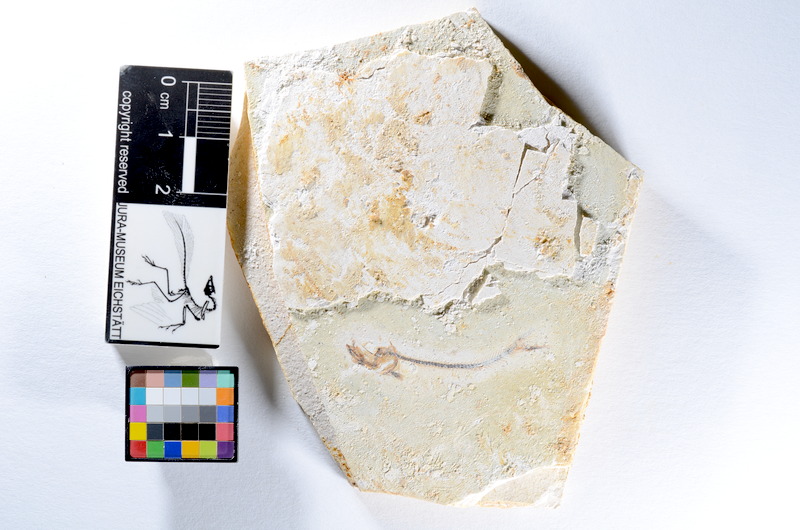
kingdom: Animalia
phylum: Chordata
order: Salmoniformes
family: Orthogonikleithridae
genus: Orthogonikleithrus
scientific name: Orthogonikleithrus hoelli
